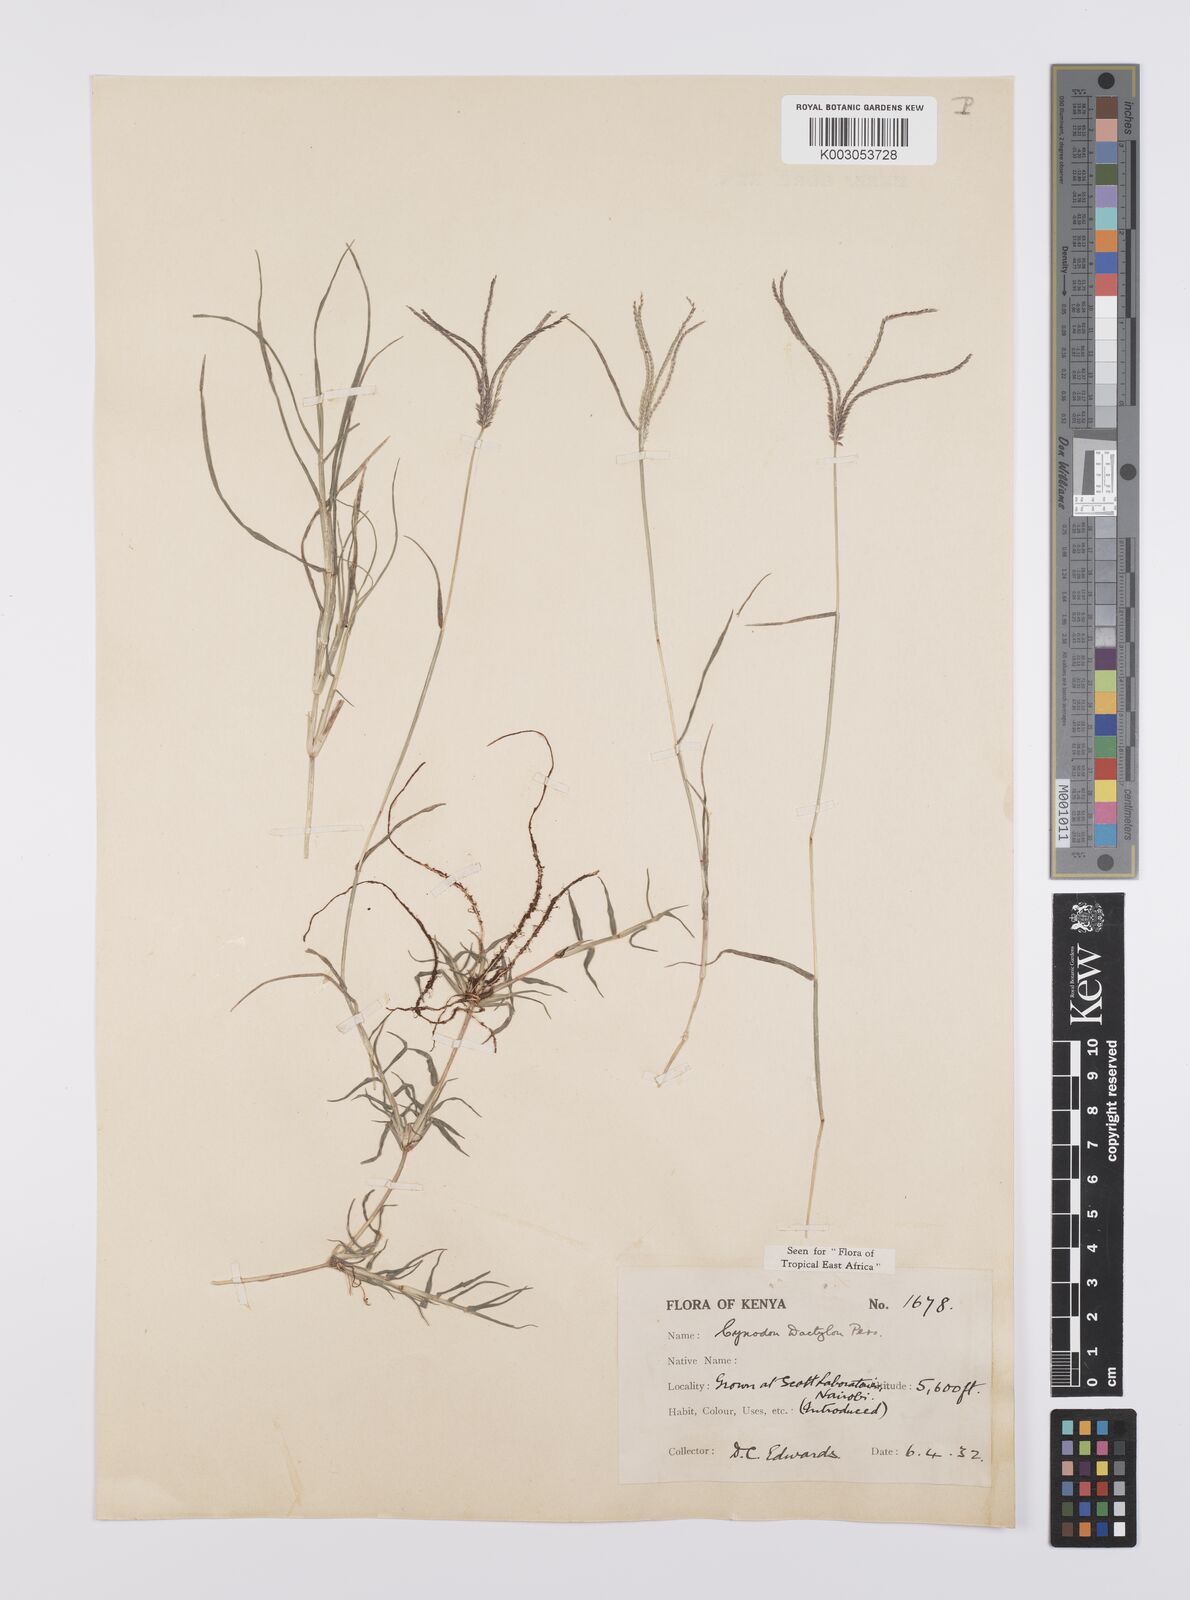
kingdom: Plantae
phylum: Tracheophyta
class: Liliopsida
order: Poales
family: Poaceae
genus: Cynodon
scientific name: Cynodon dactylon
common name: Bermuda grass
